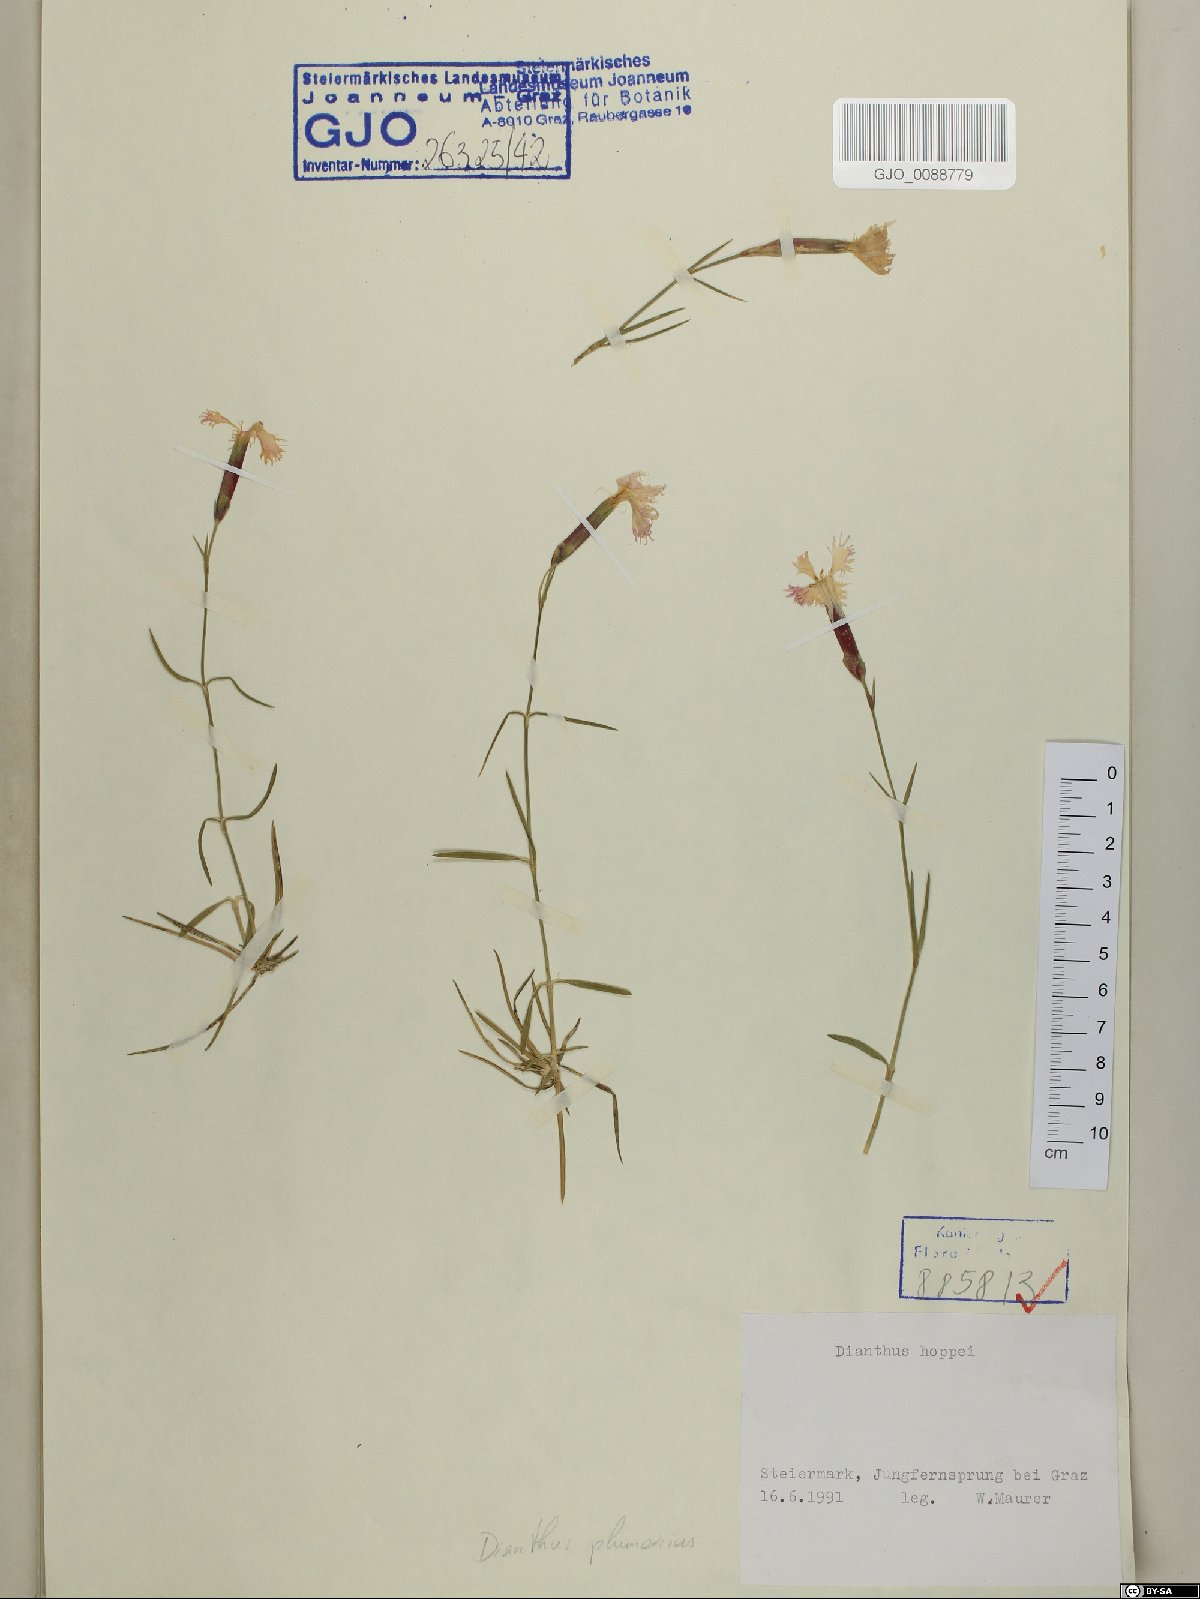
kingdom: Plantae
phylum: Tracheophyta
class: Magnoliopsida
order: Caryophyllales
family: Caryophyllaceae
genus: Dianthus
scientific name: Dianthus plumarius
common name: Pink
